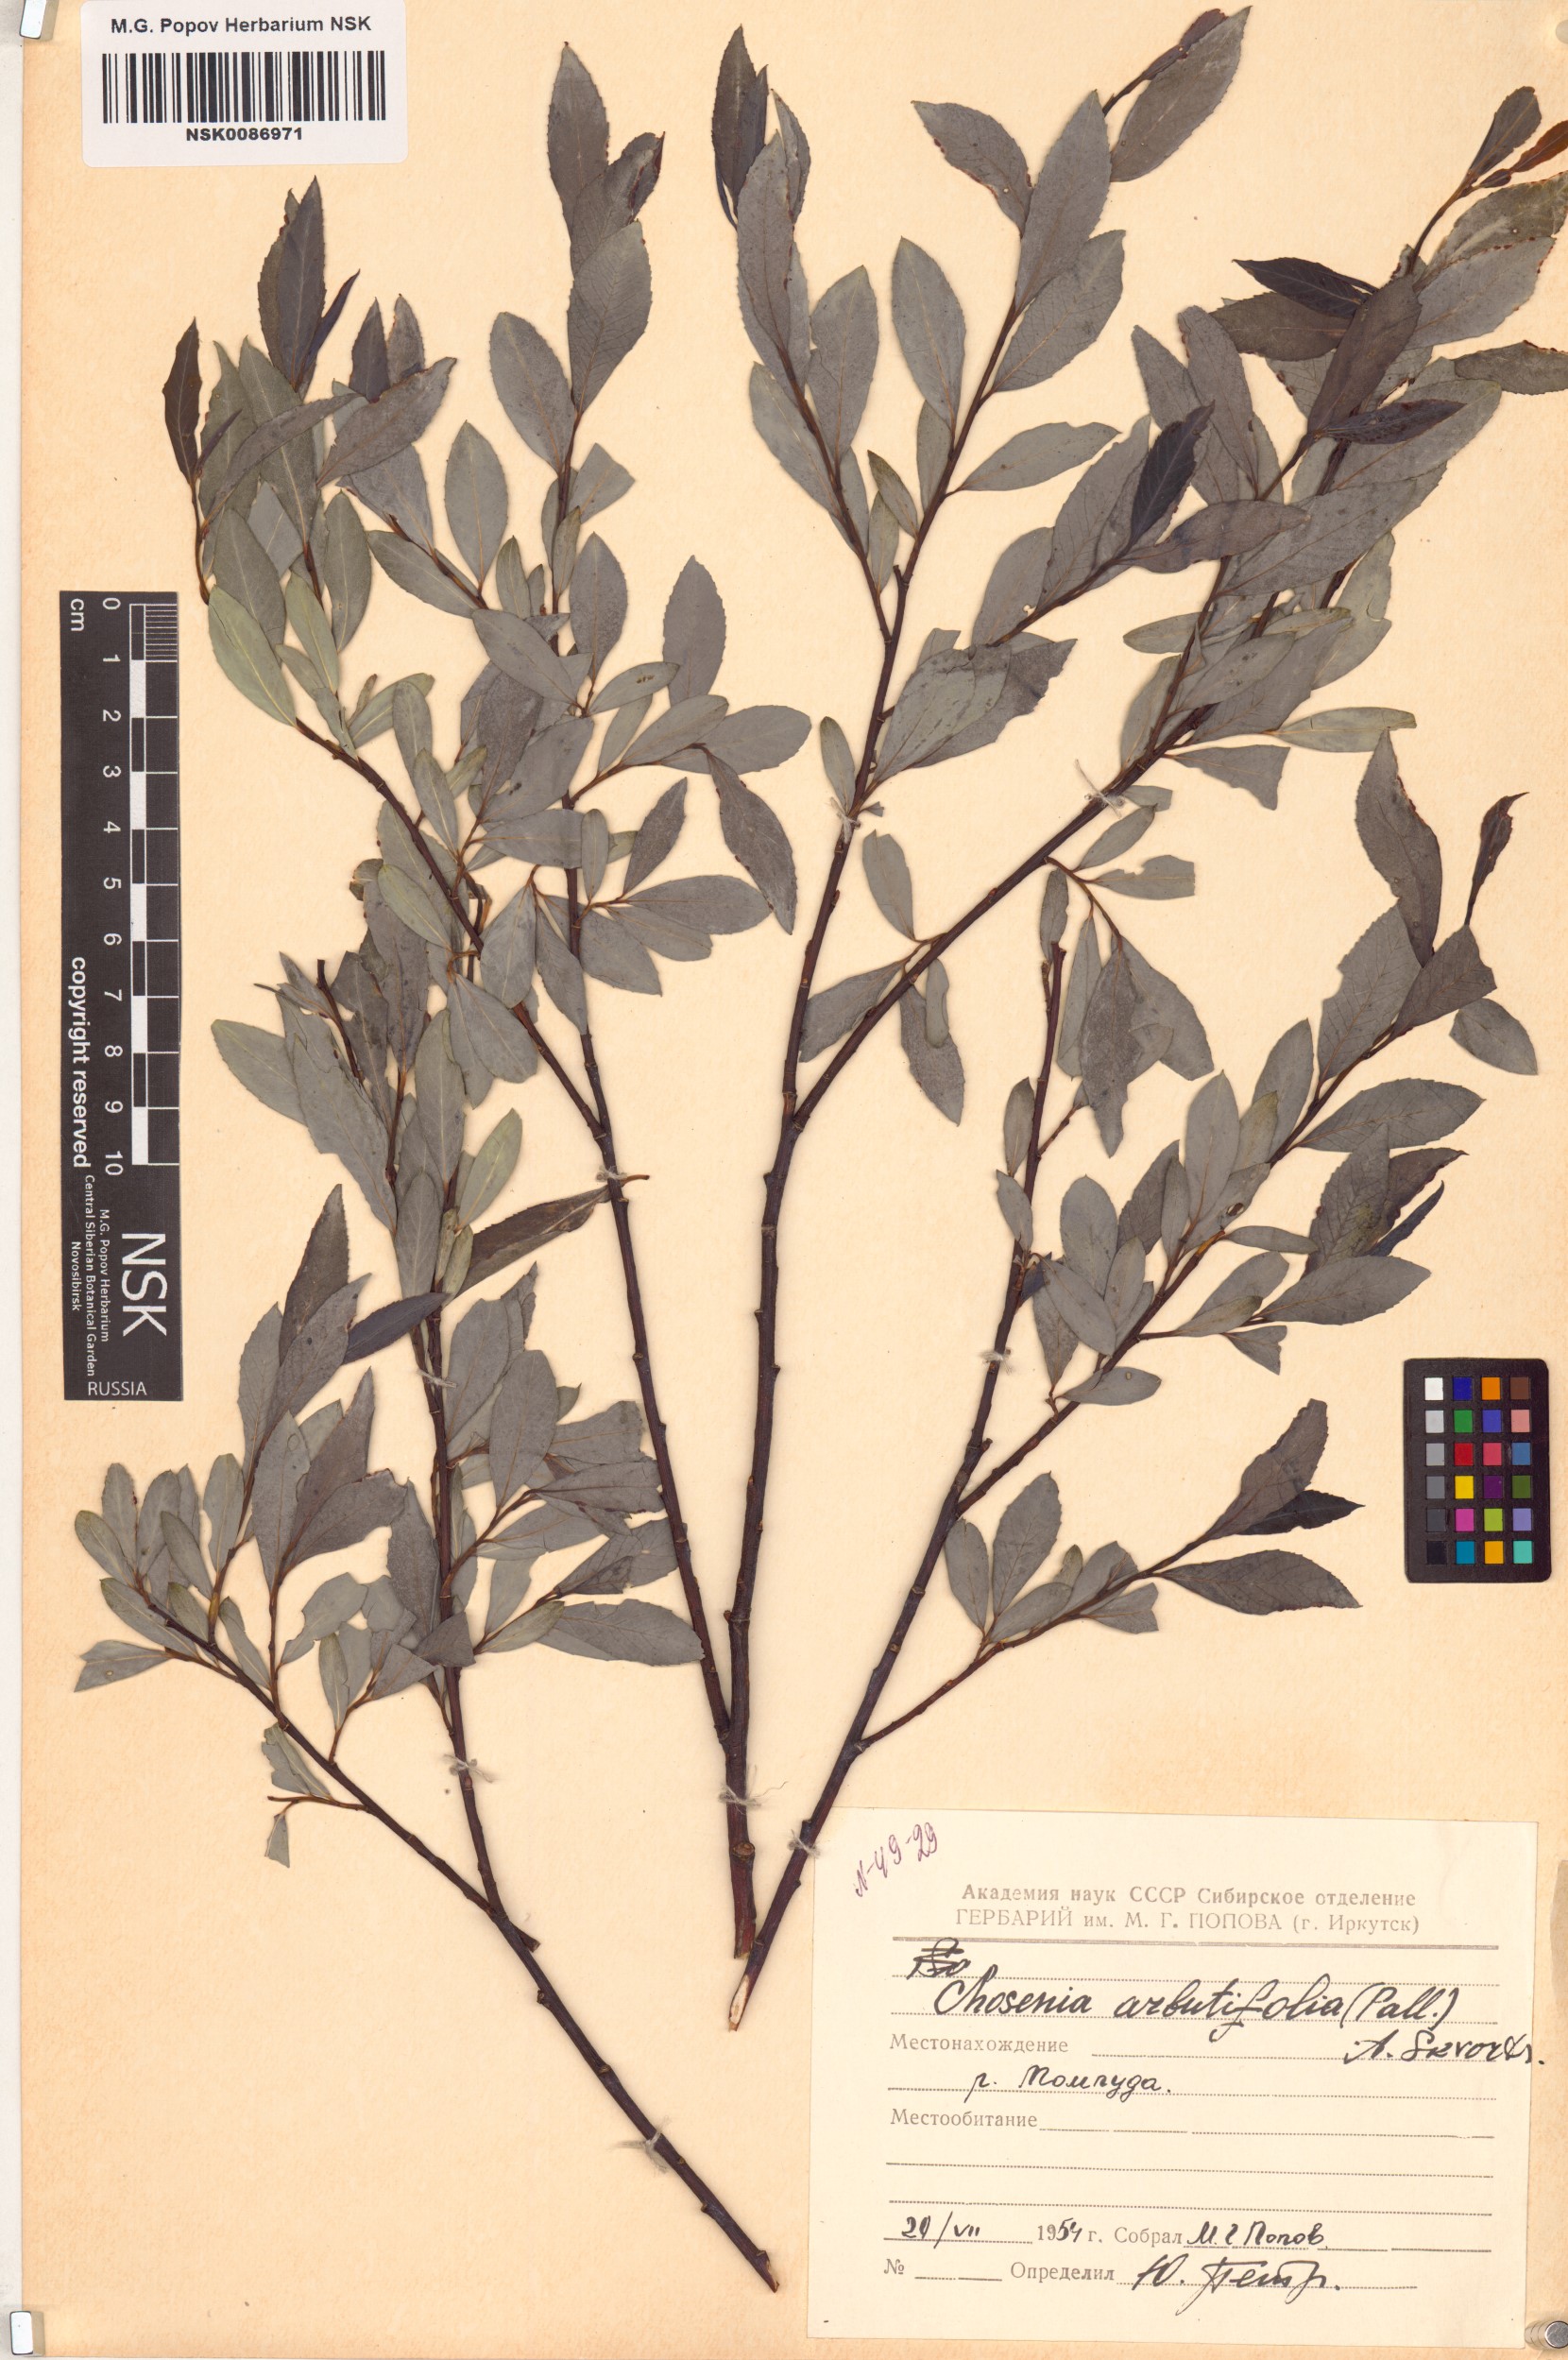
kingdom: Plantae
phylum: Tracheophyta
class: Magnoliopsida
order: Malpighiales
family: Salicaceae
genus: Chosenia
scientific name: Chosenia arbutifolia
